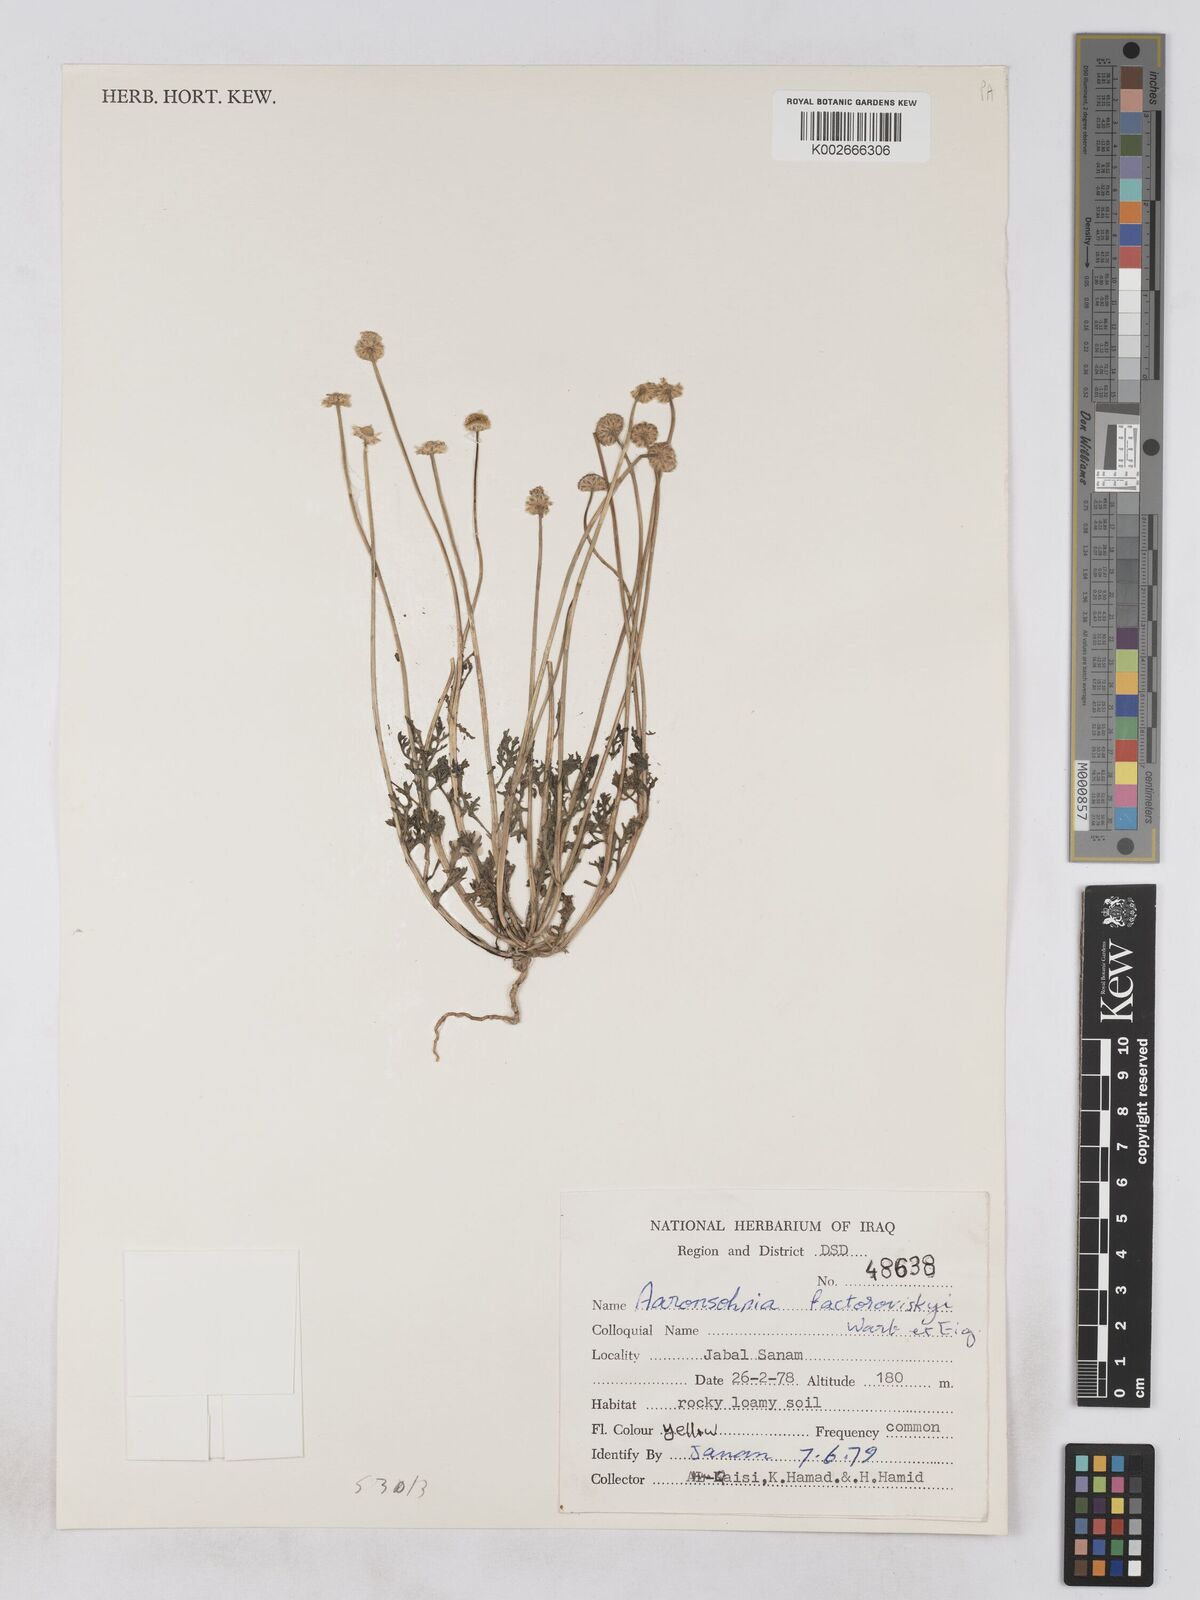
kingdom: Plantae
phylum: Tracheophyta
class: Magnoliopsida
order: Asterales
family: Asteraceae
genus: Otoglyphis
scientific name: Otoglyphis factorovskyi
